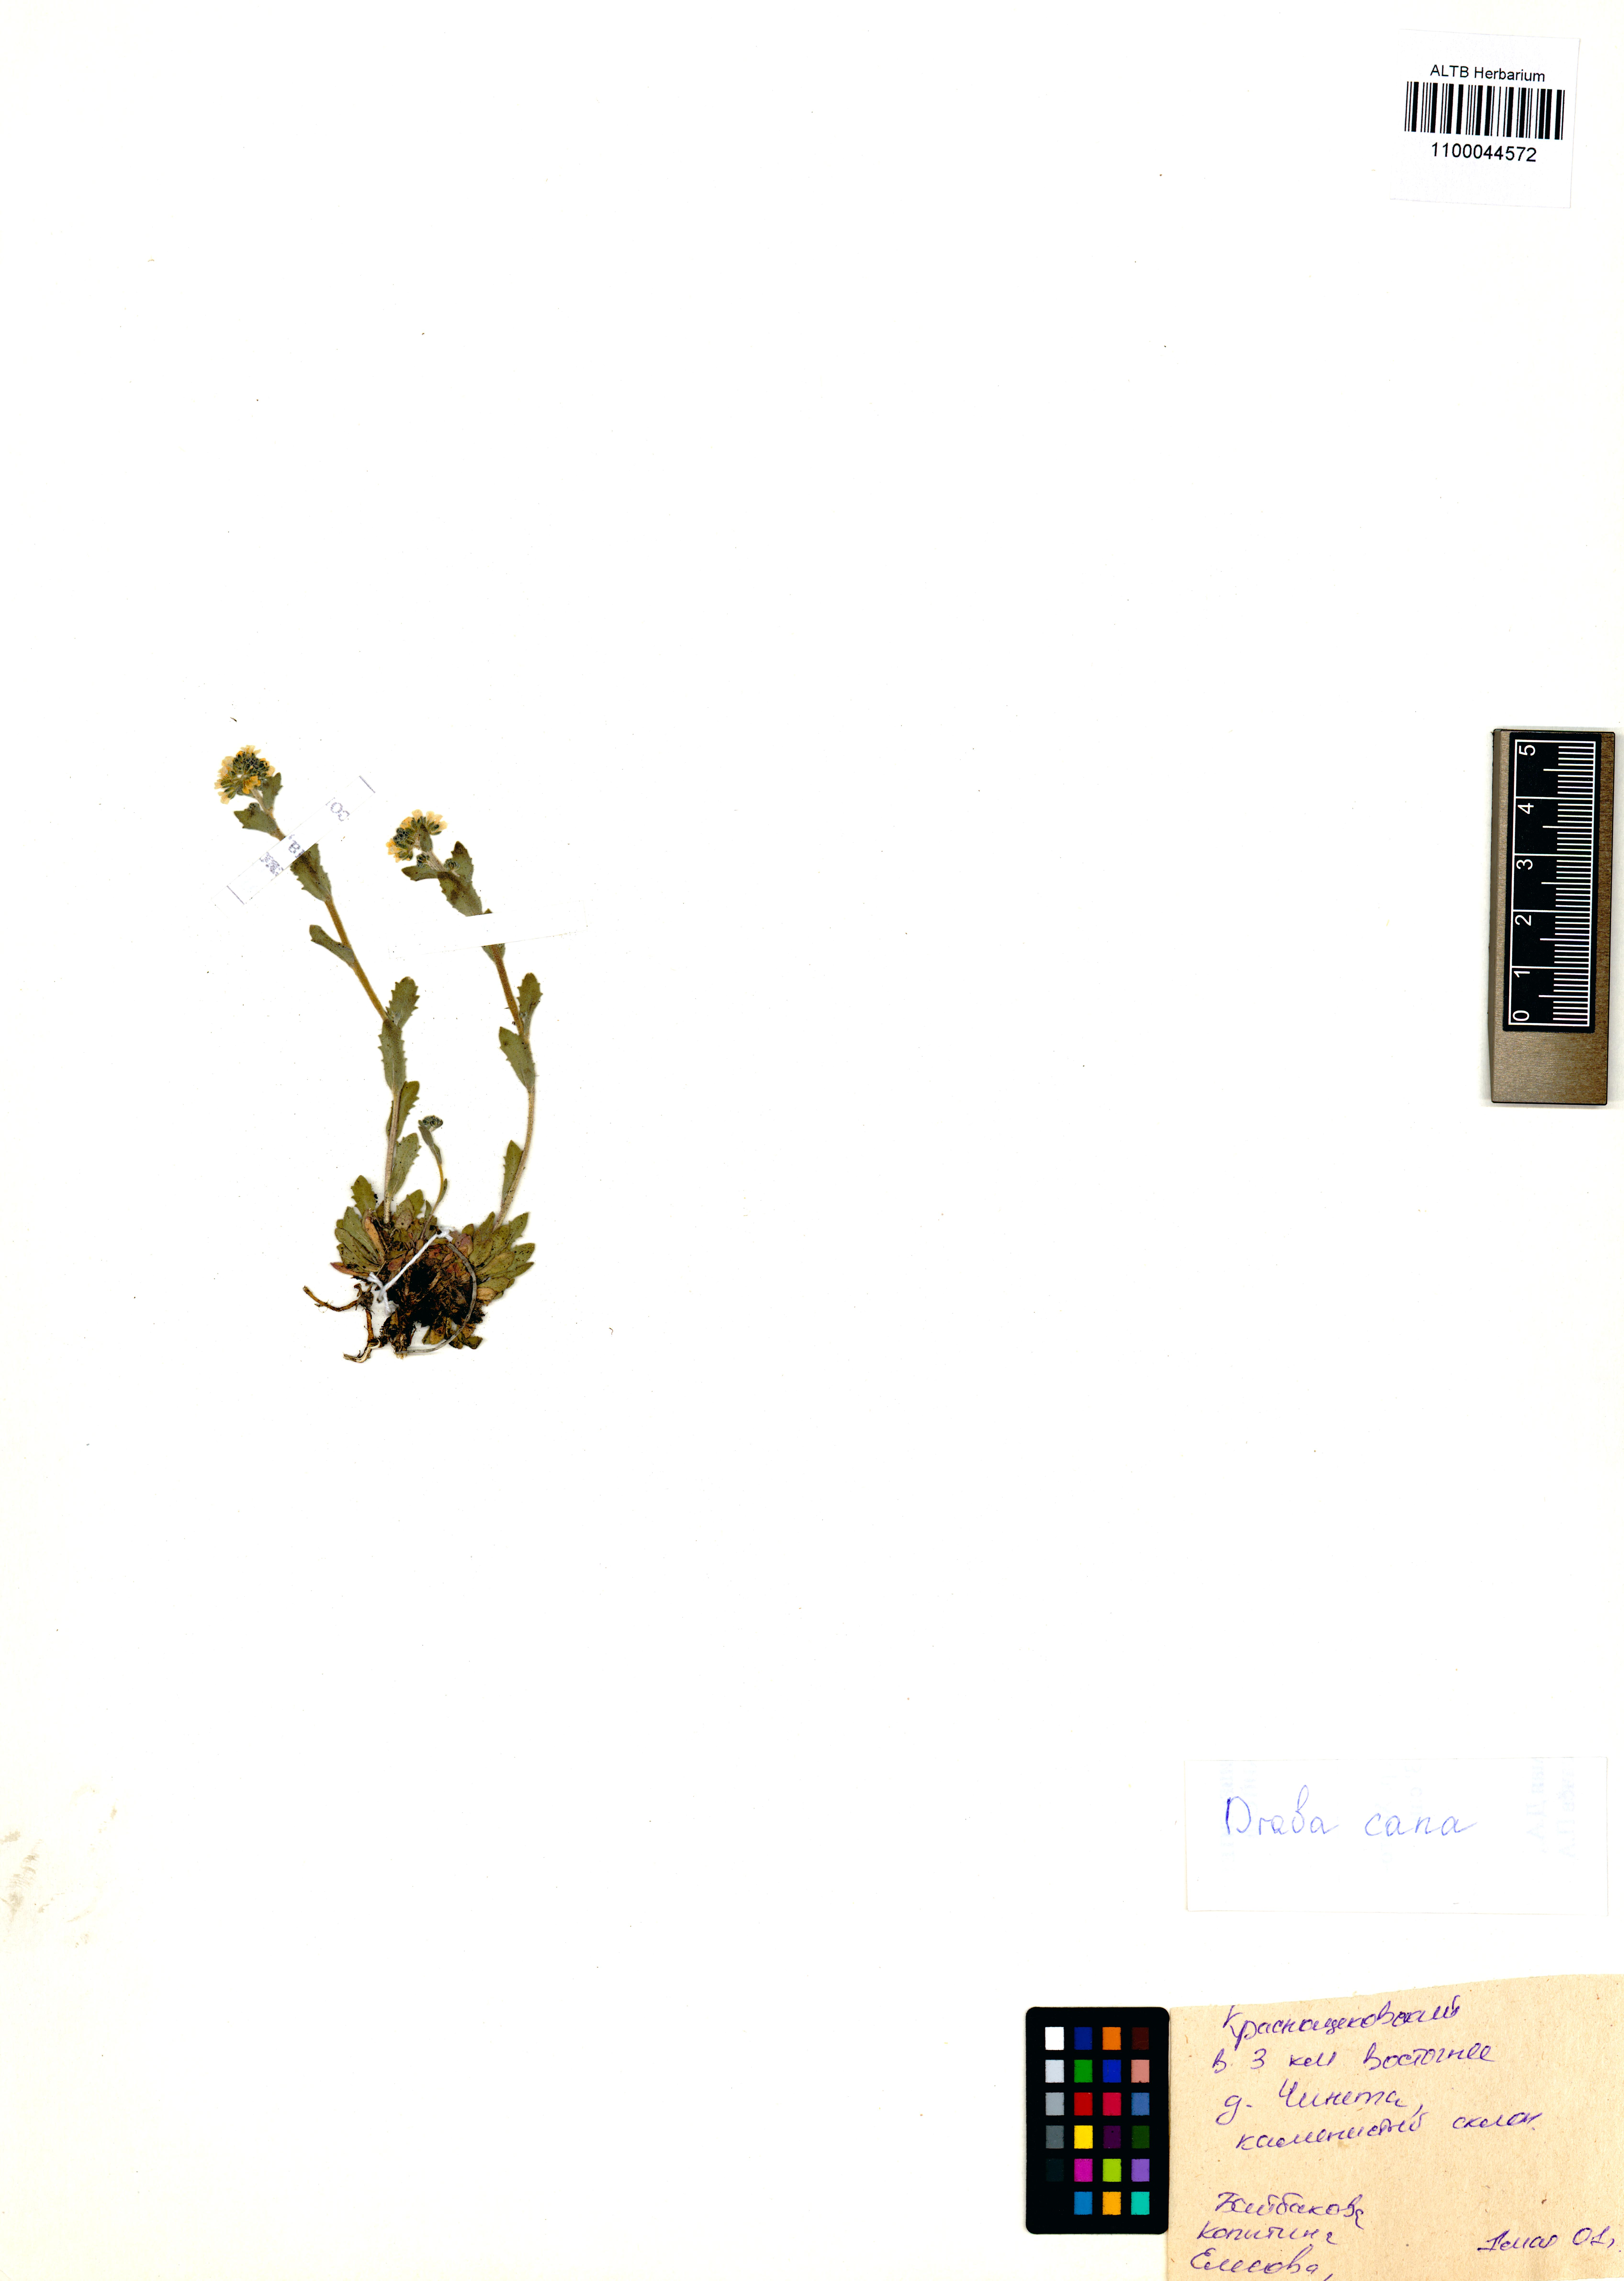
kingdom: Plantae
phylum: Tracheophyta
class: Magnoliopsida
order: Brassicales
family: Brassicaceae
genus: Draba
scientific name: Draba cana
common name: Hoary draba
